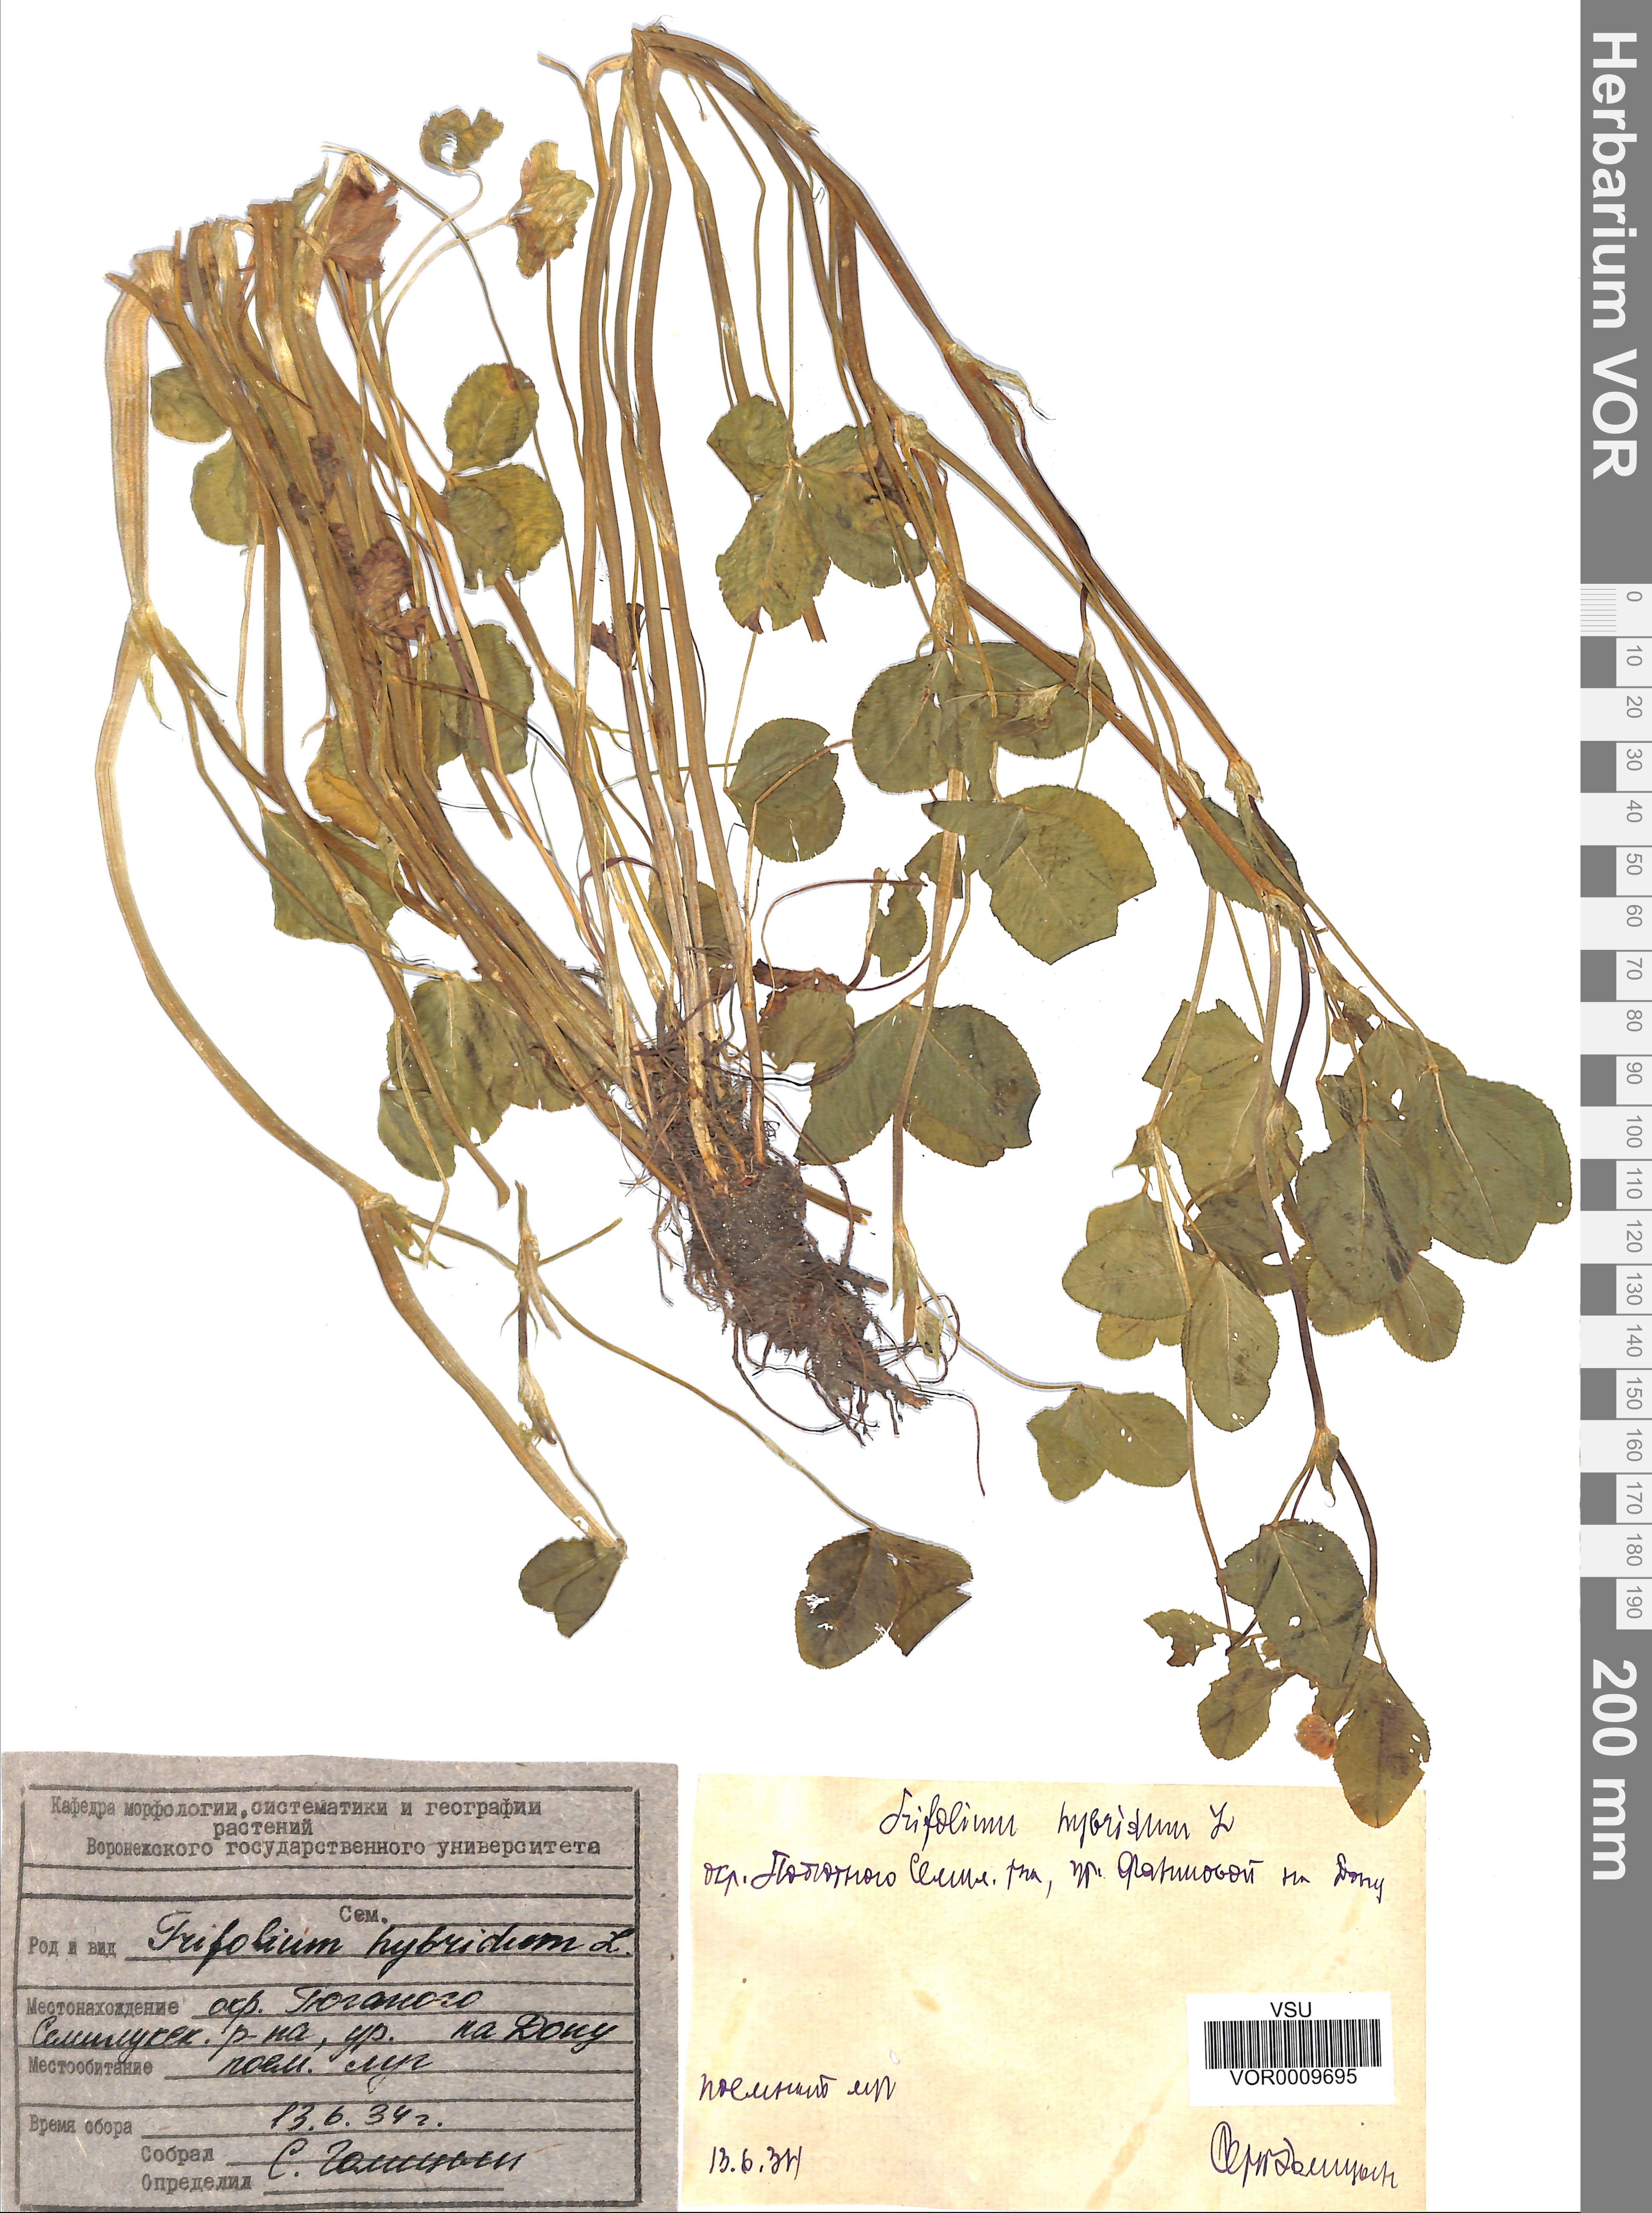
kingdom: Plantae
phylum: Tracheophyta
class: Magnoliopsida
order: Fabales
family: Fabaceae
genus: Trifolium
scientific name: Trifolium hybridum
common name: Alsike clover
